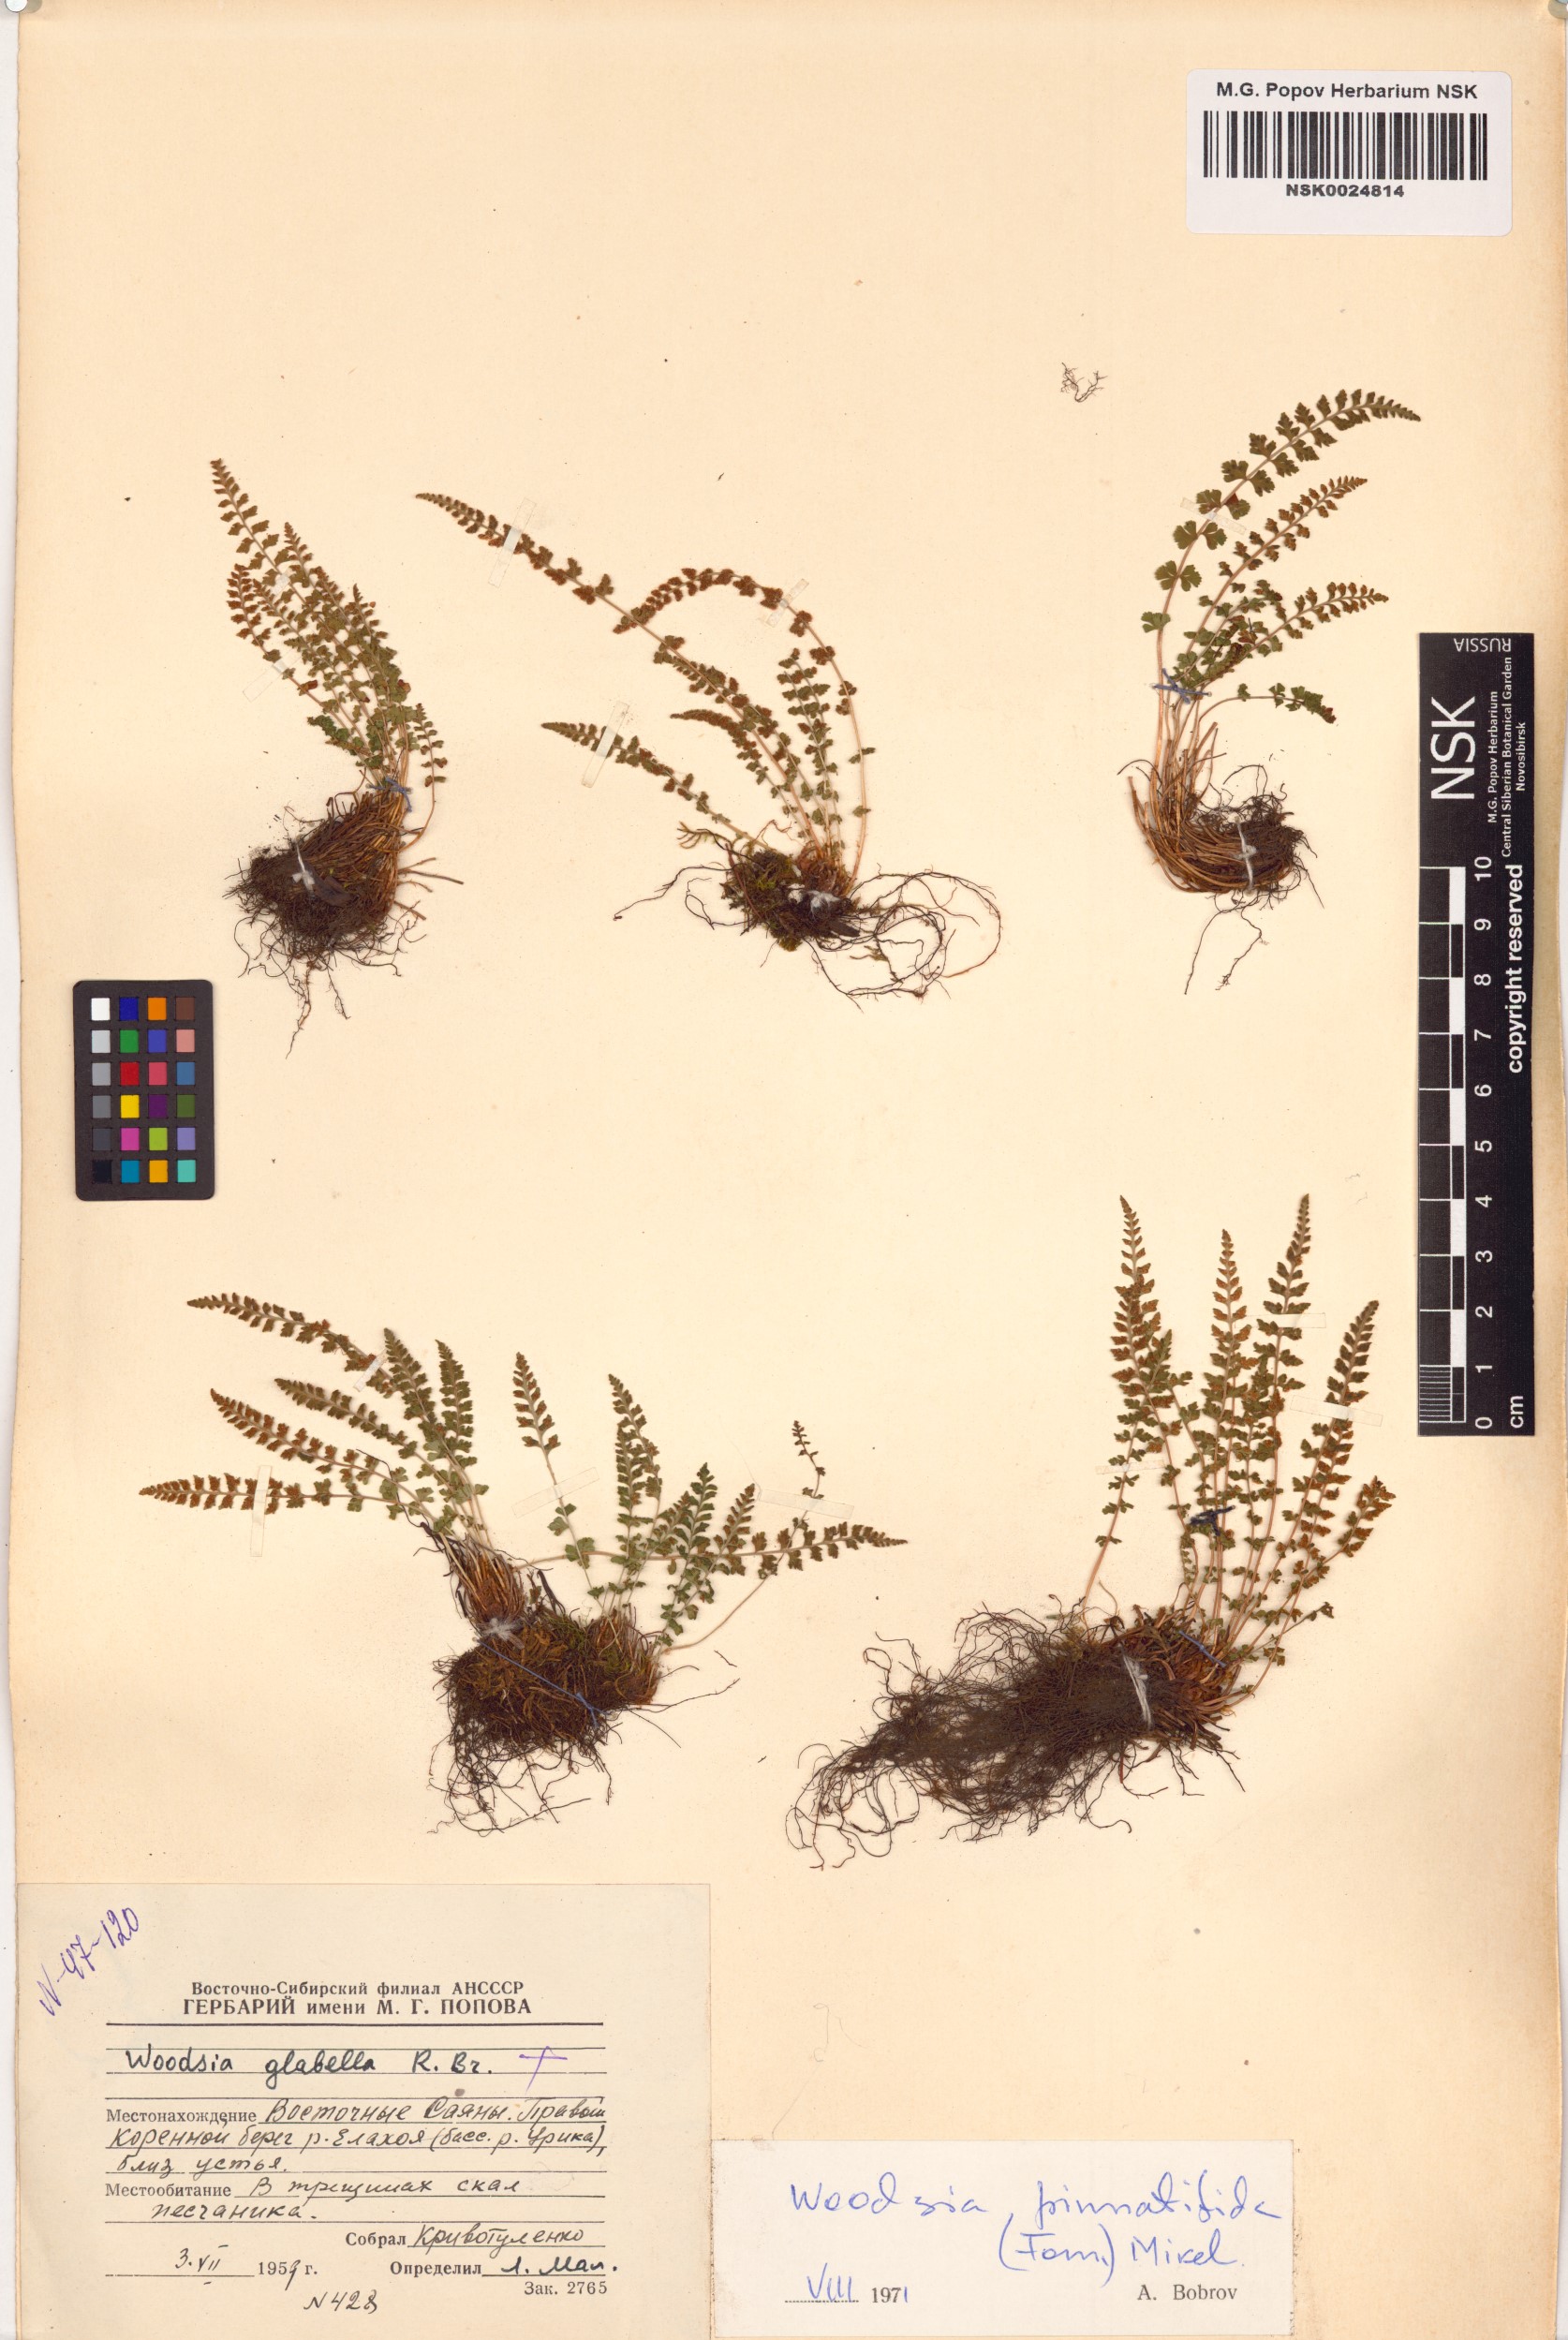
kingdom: Plantae
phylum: Tracheophyta
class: Polypodiopsida
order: Polypodiales
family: Woodsiaceae
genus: Woodsia
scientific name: Woodsia pulchella
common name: Graceful woodsia
